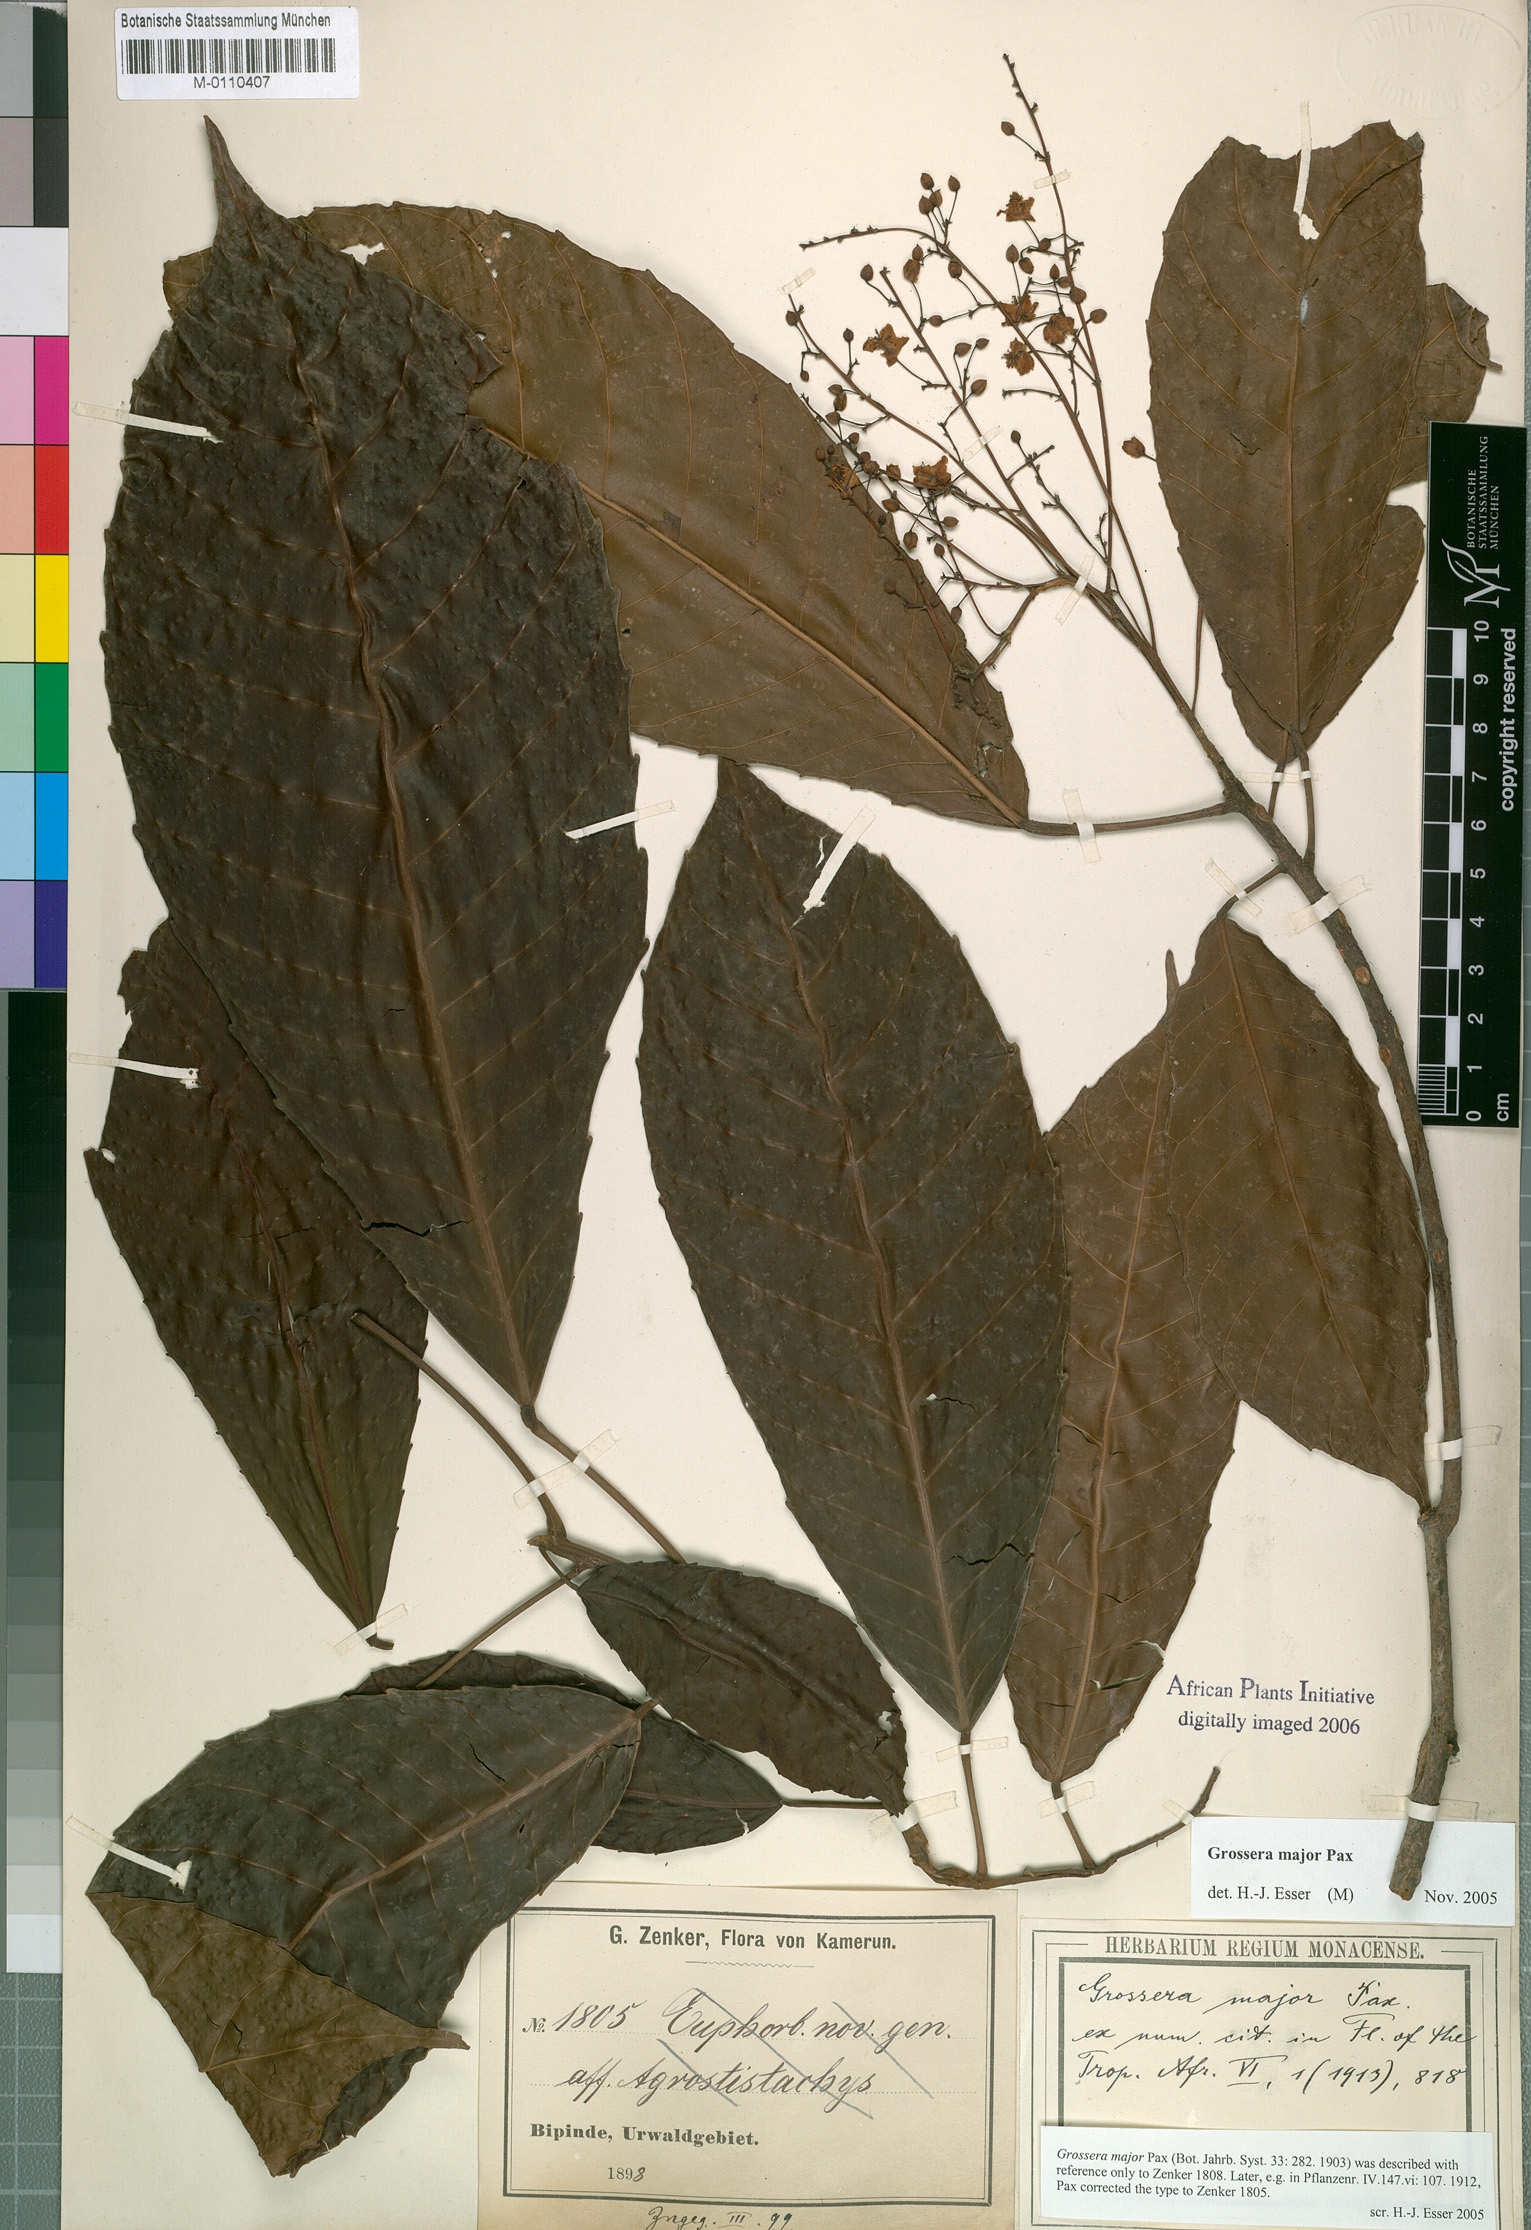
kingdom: Plantae
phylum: Tracheophyta
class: Magnoliopsida
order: Malpighiales
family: Euphorbiaceae
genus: Grossera
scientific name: Grossera major
